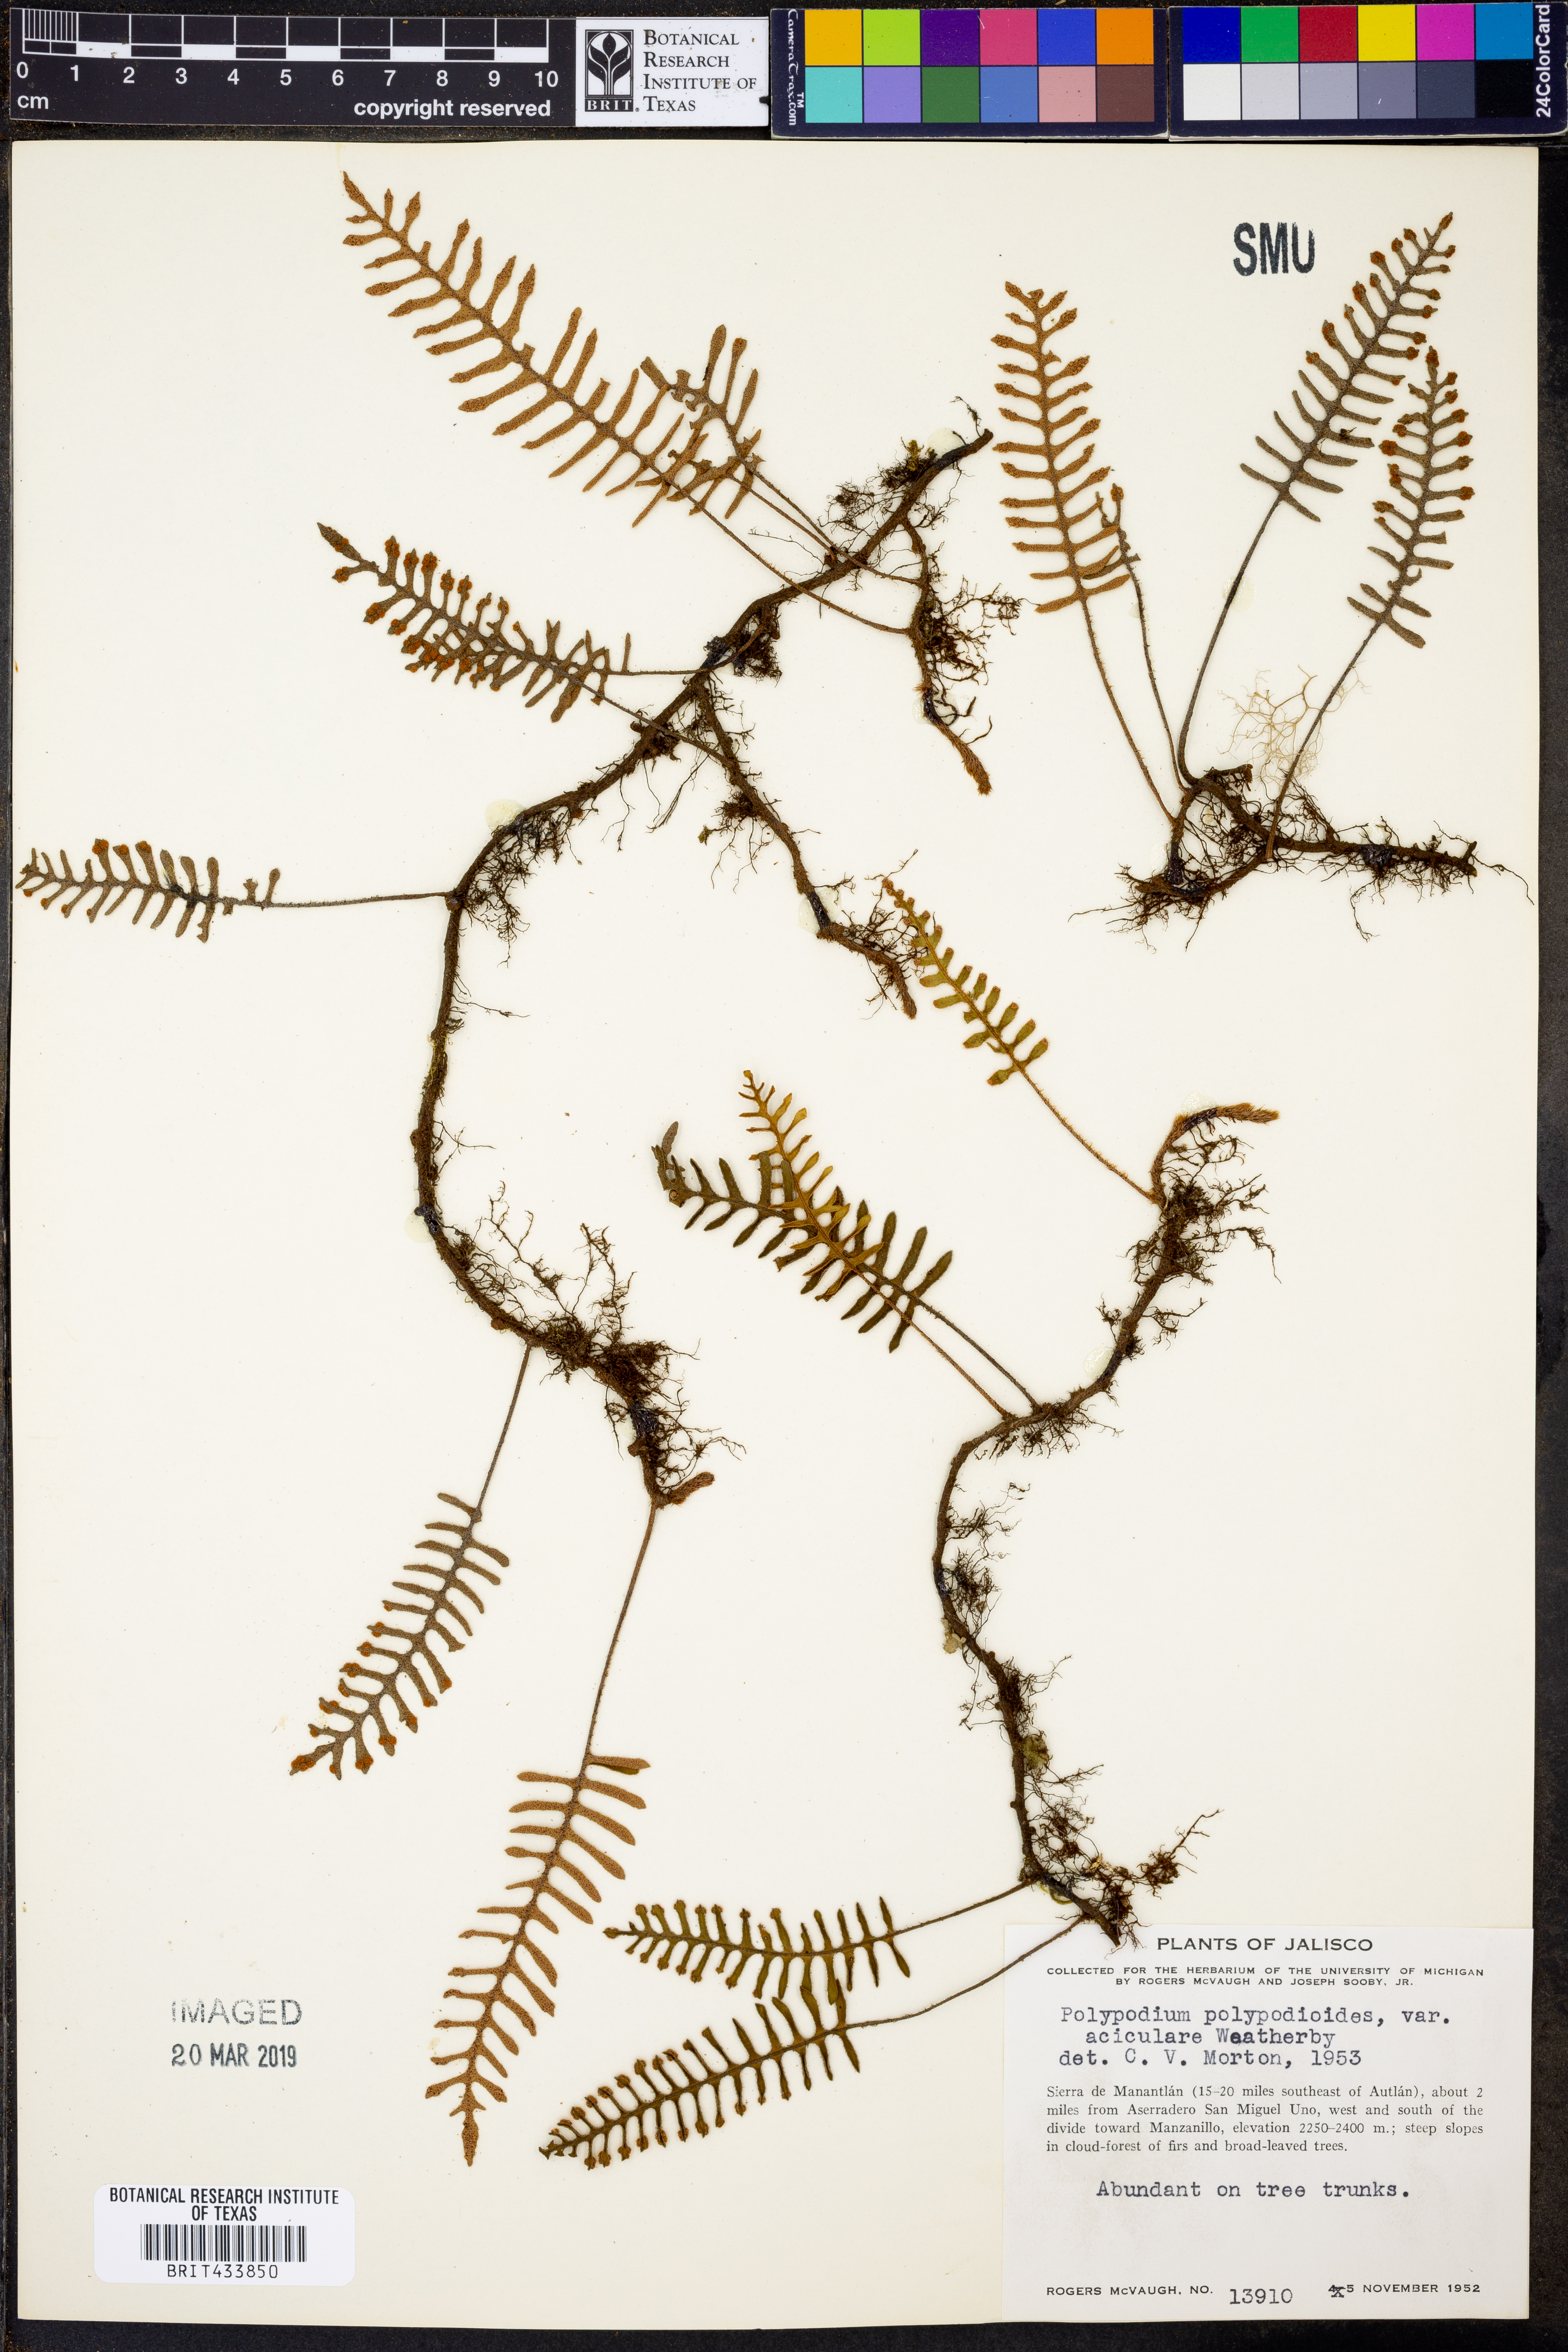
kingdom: Plantae
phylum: Tracheophyta
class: Polypodiopsida
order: Polypodiales
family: Polypodiaceae
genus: Pleopeltis
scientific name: Pleopeltis acicularis
